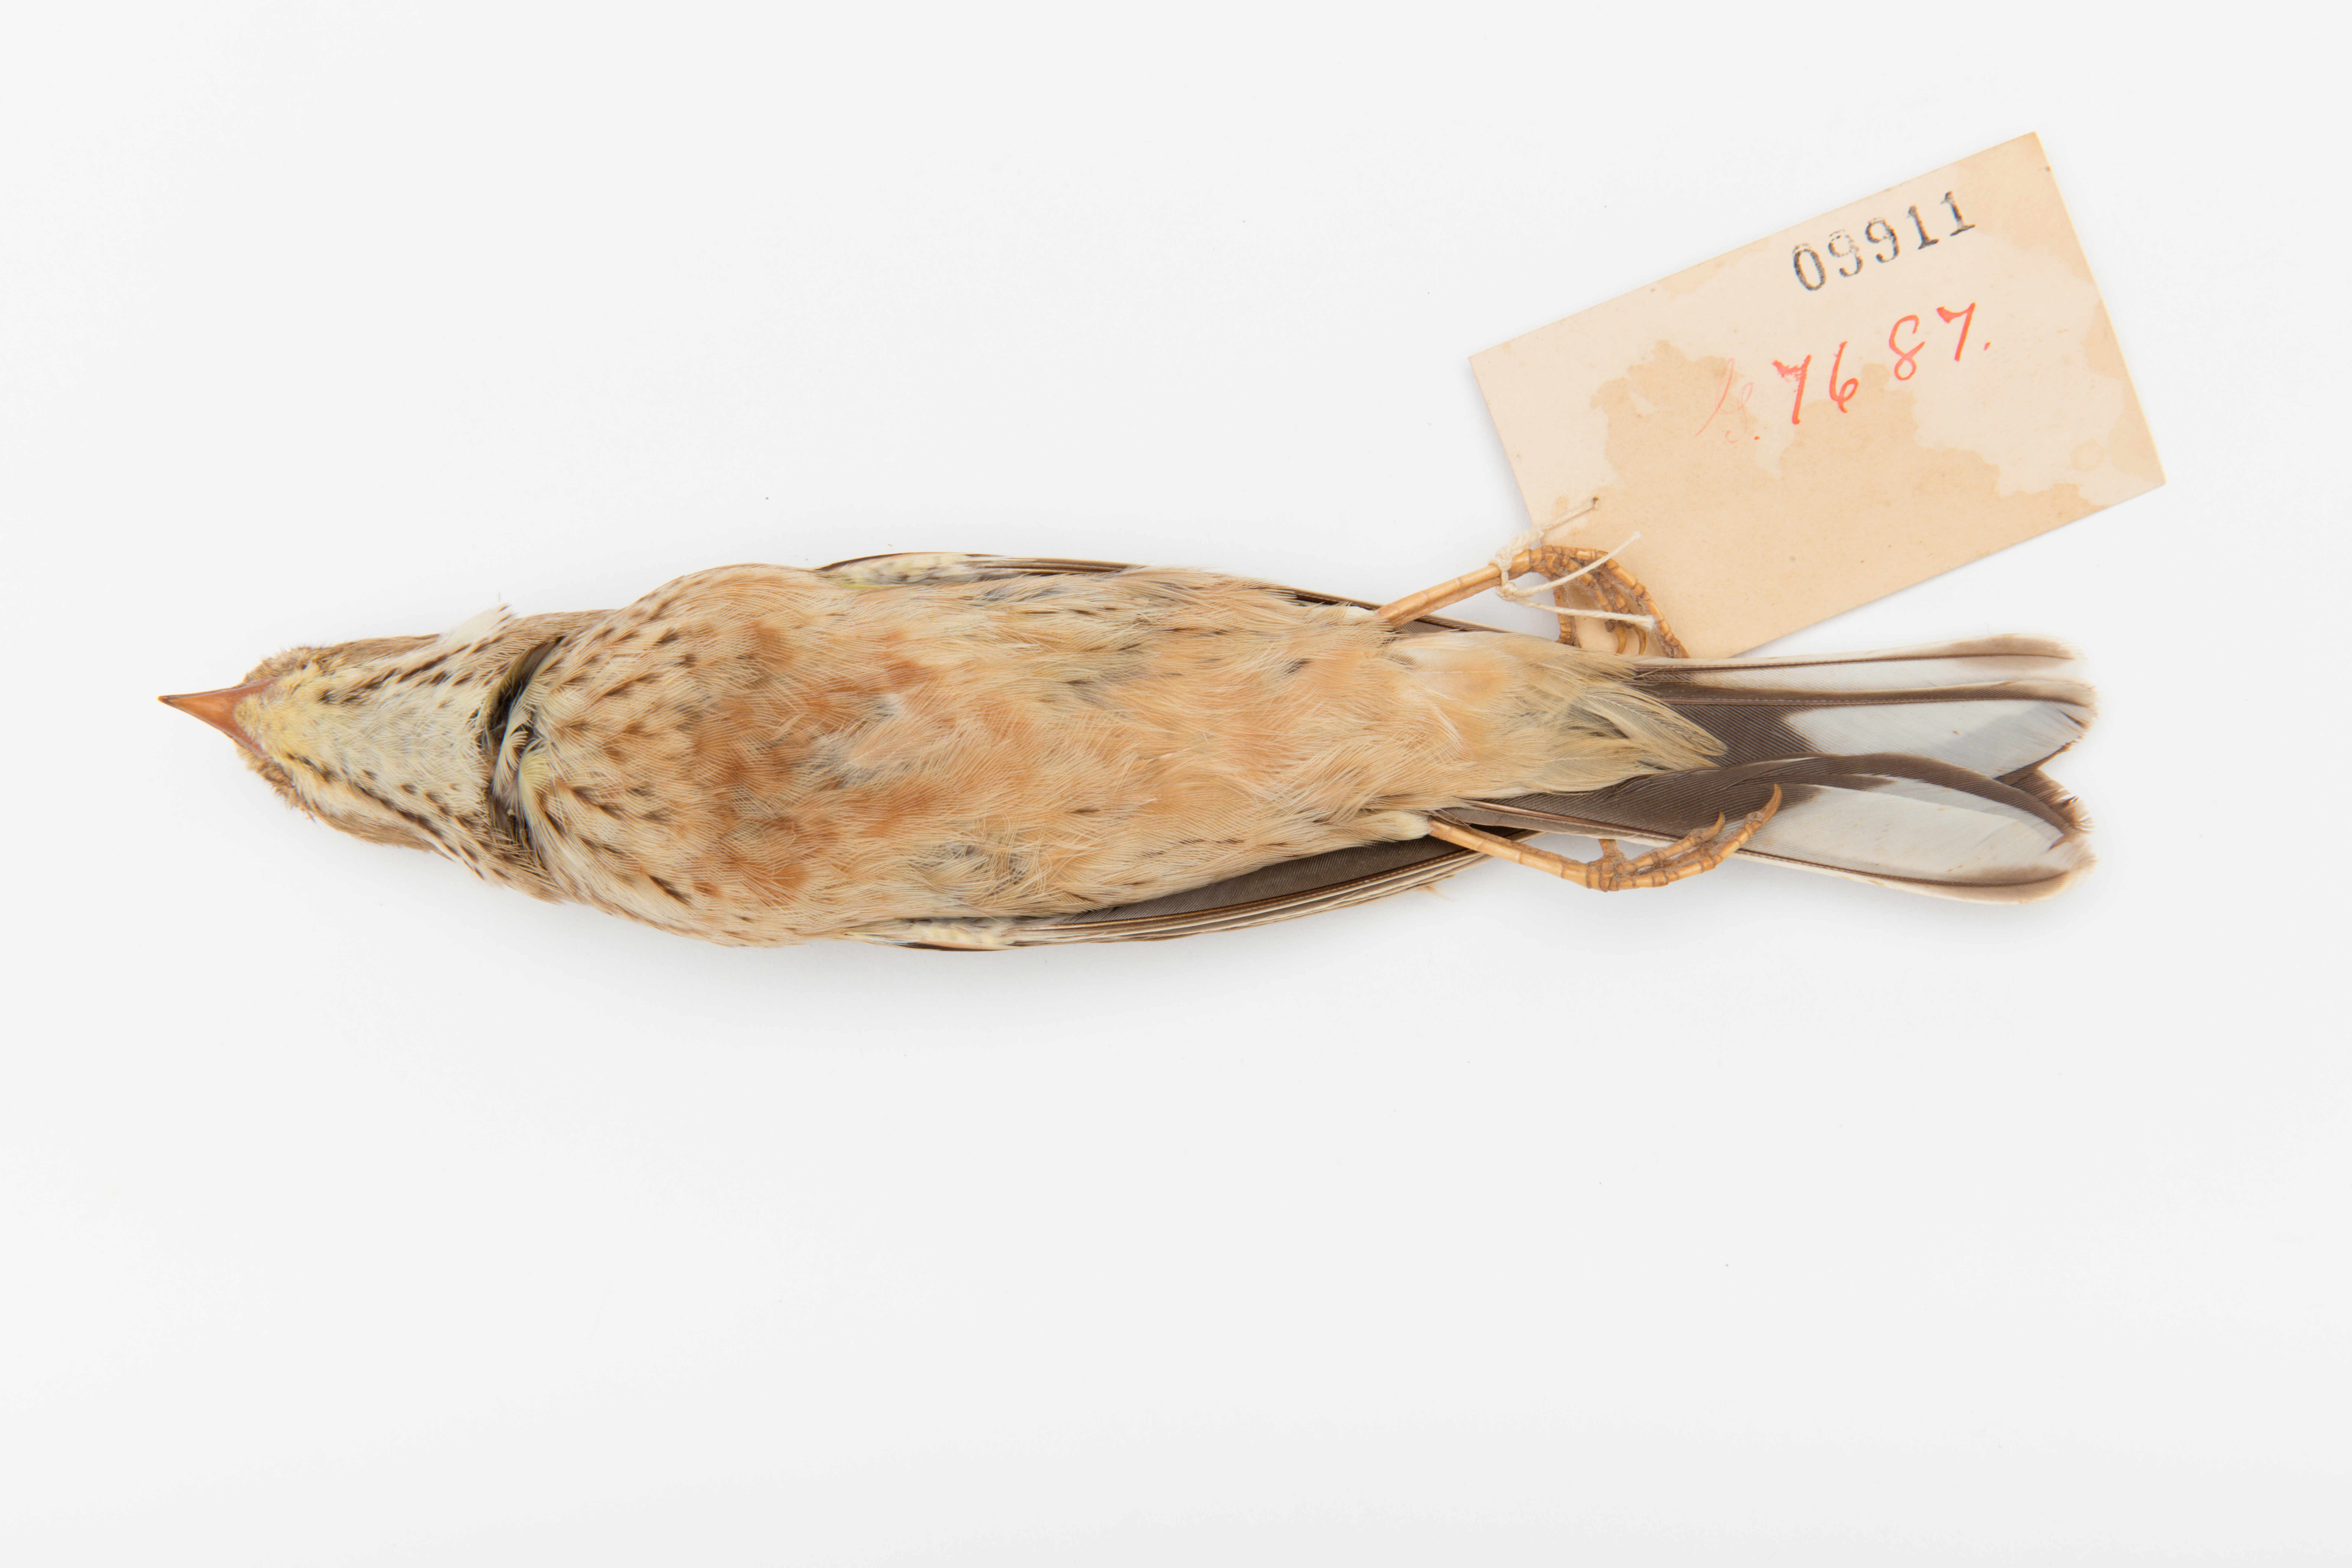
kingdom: Animalia
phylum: Chordata
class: Aves
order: Passeriformes
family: Emberizidae
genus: Emberiza
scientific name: Emberiza hortulana
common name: Ortolan bunting
